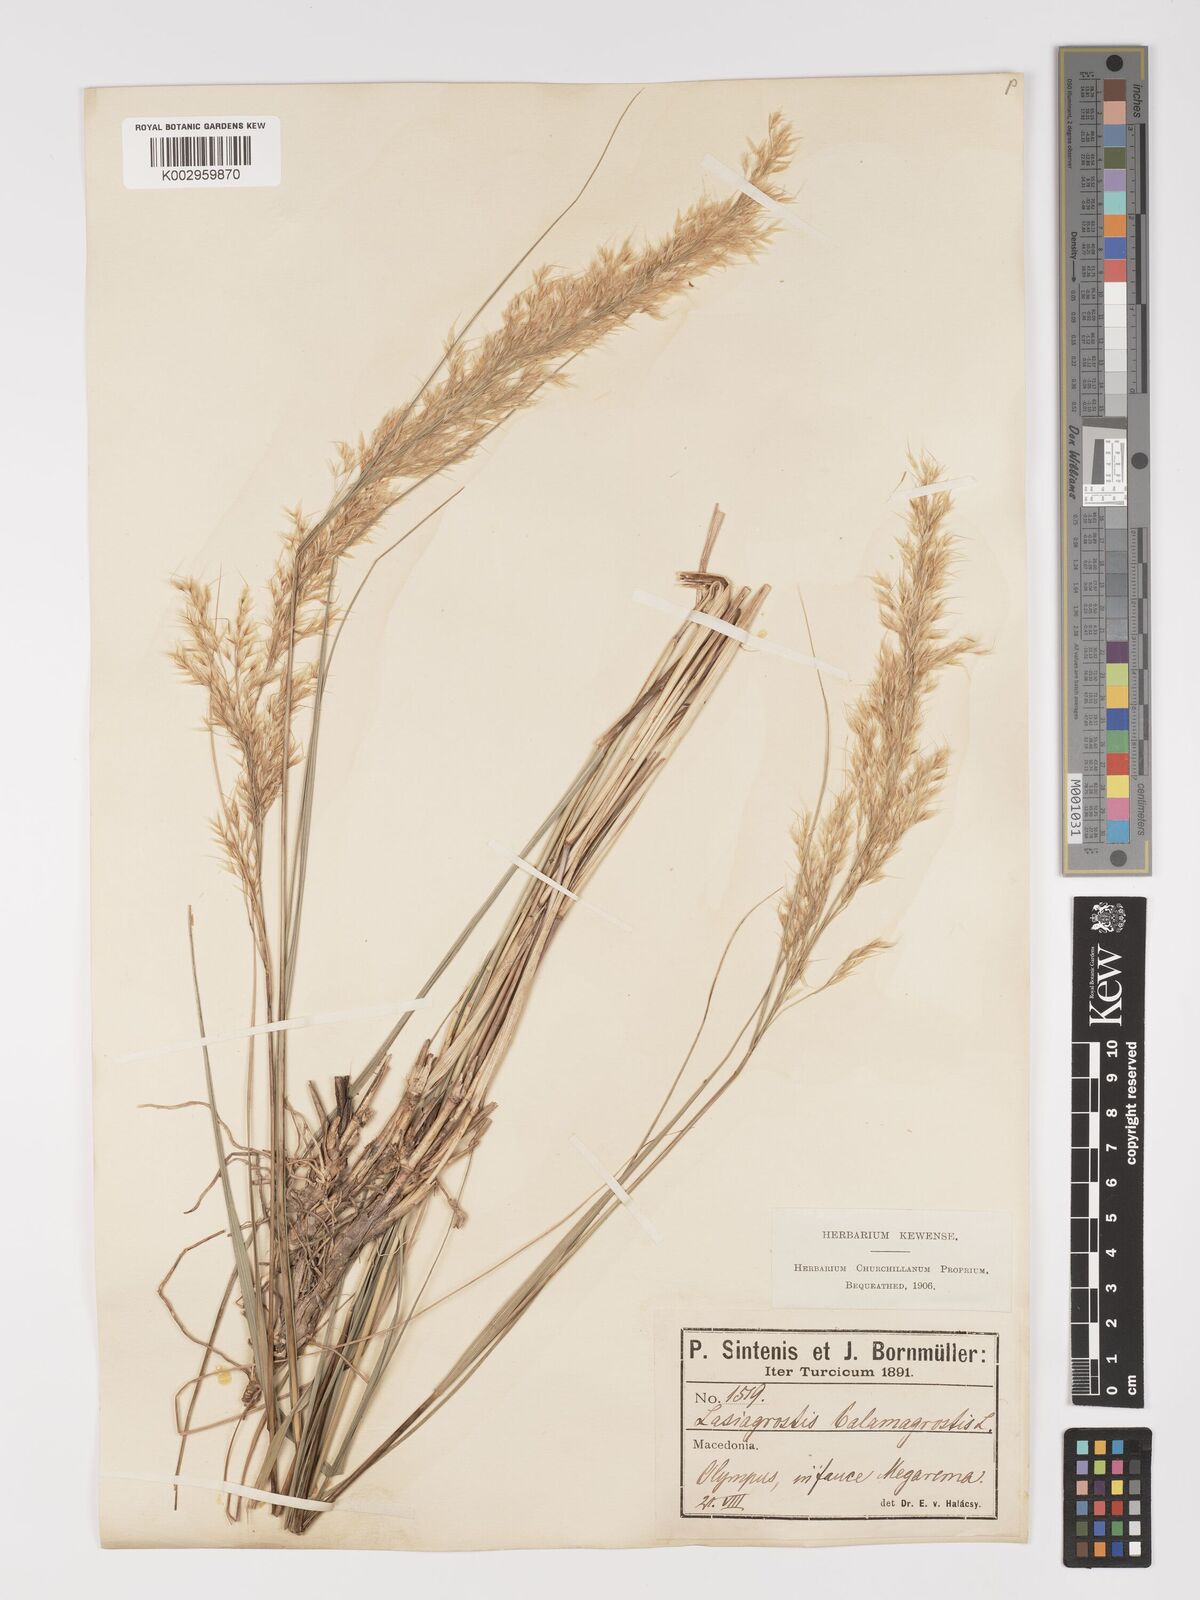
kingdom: Plantae
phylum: Tracheophyta
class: Liliopsida
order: Poales
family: Poaceae
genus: Achnatherum
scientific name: Achnatherum calamagrostis
